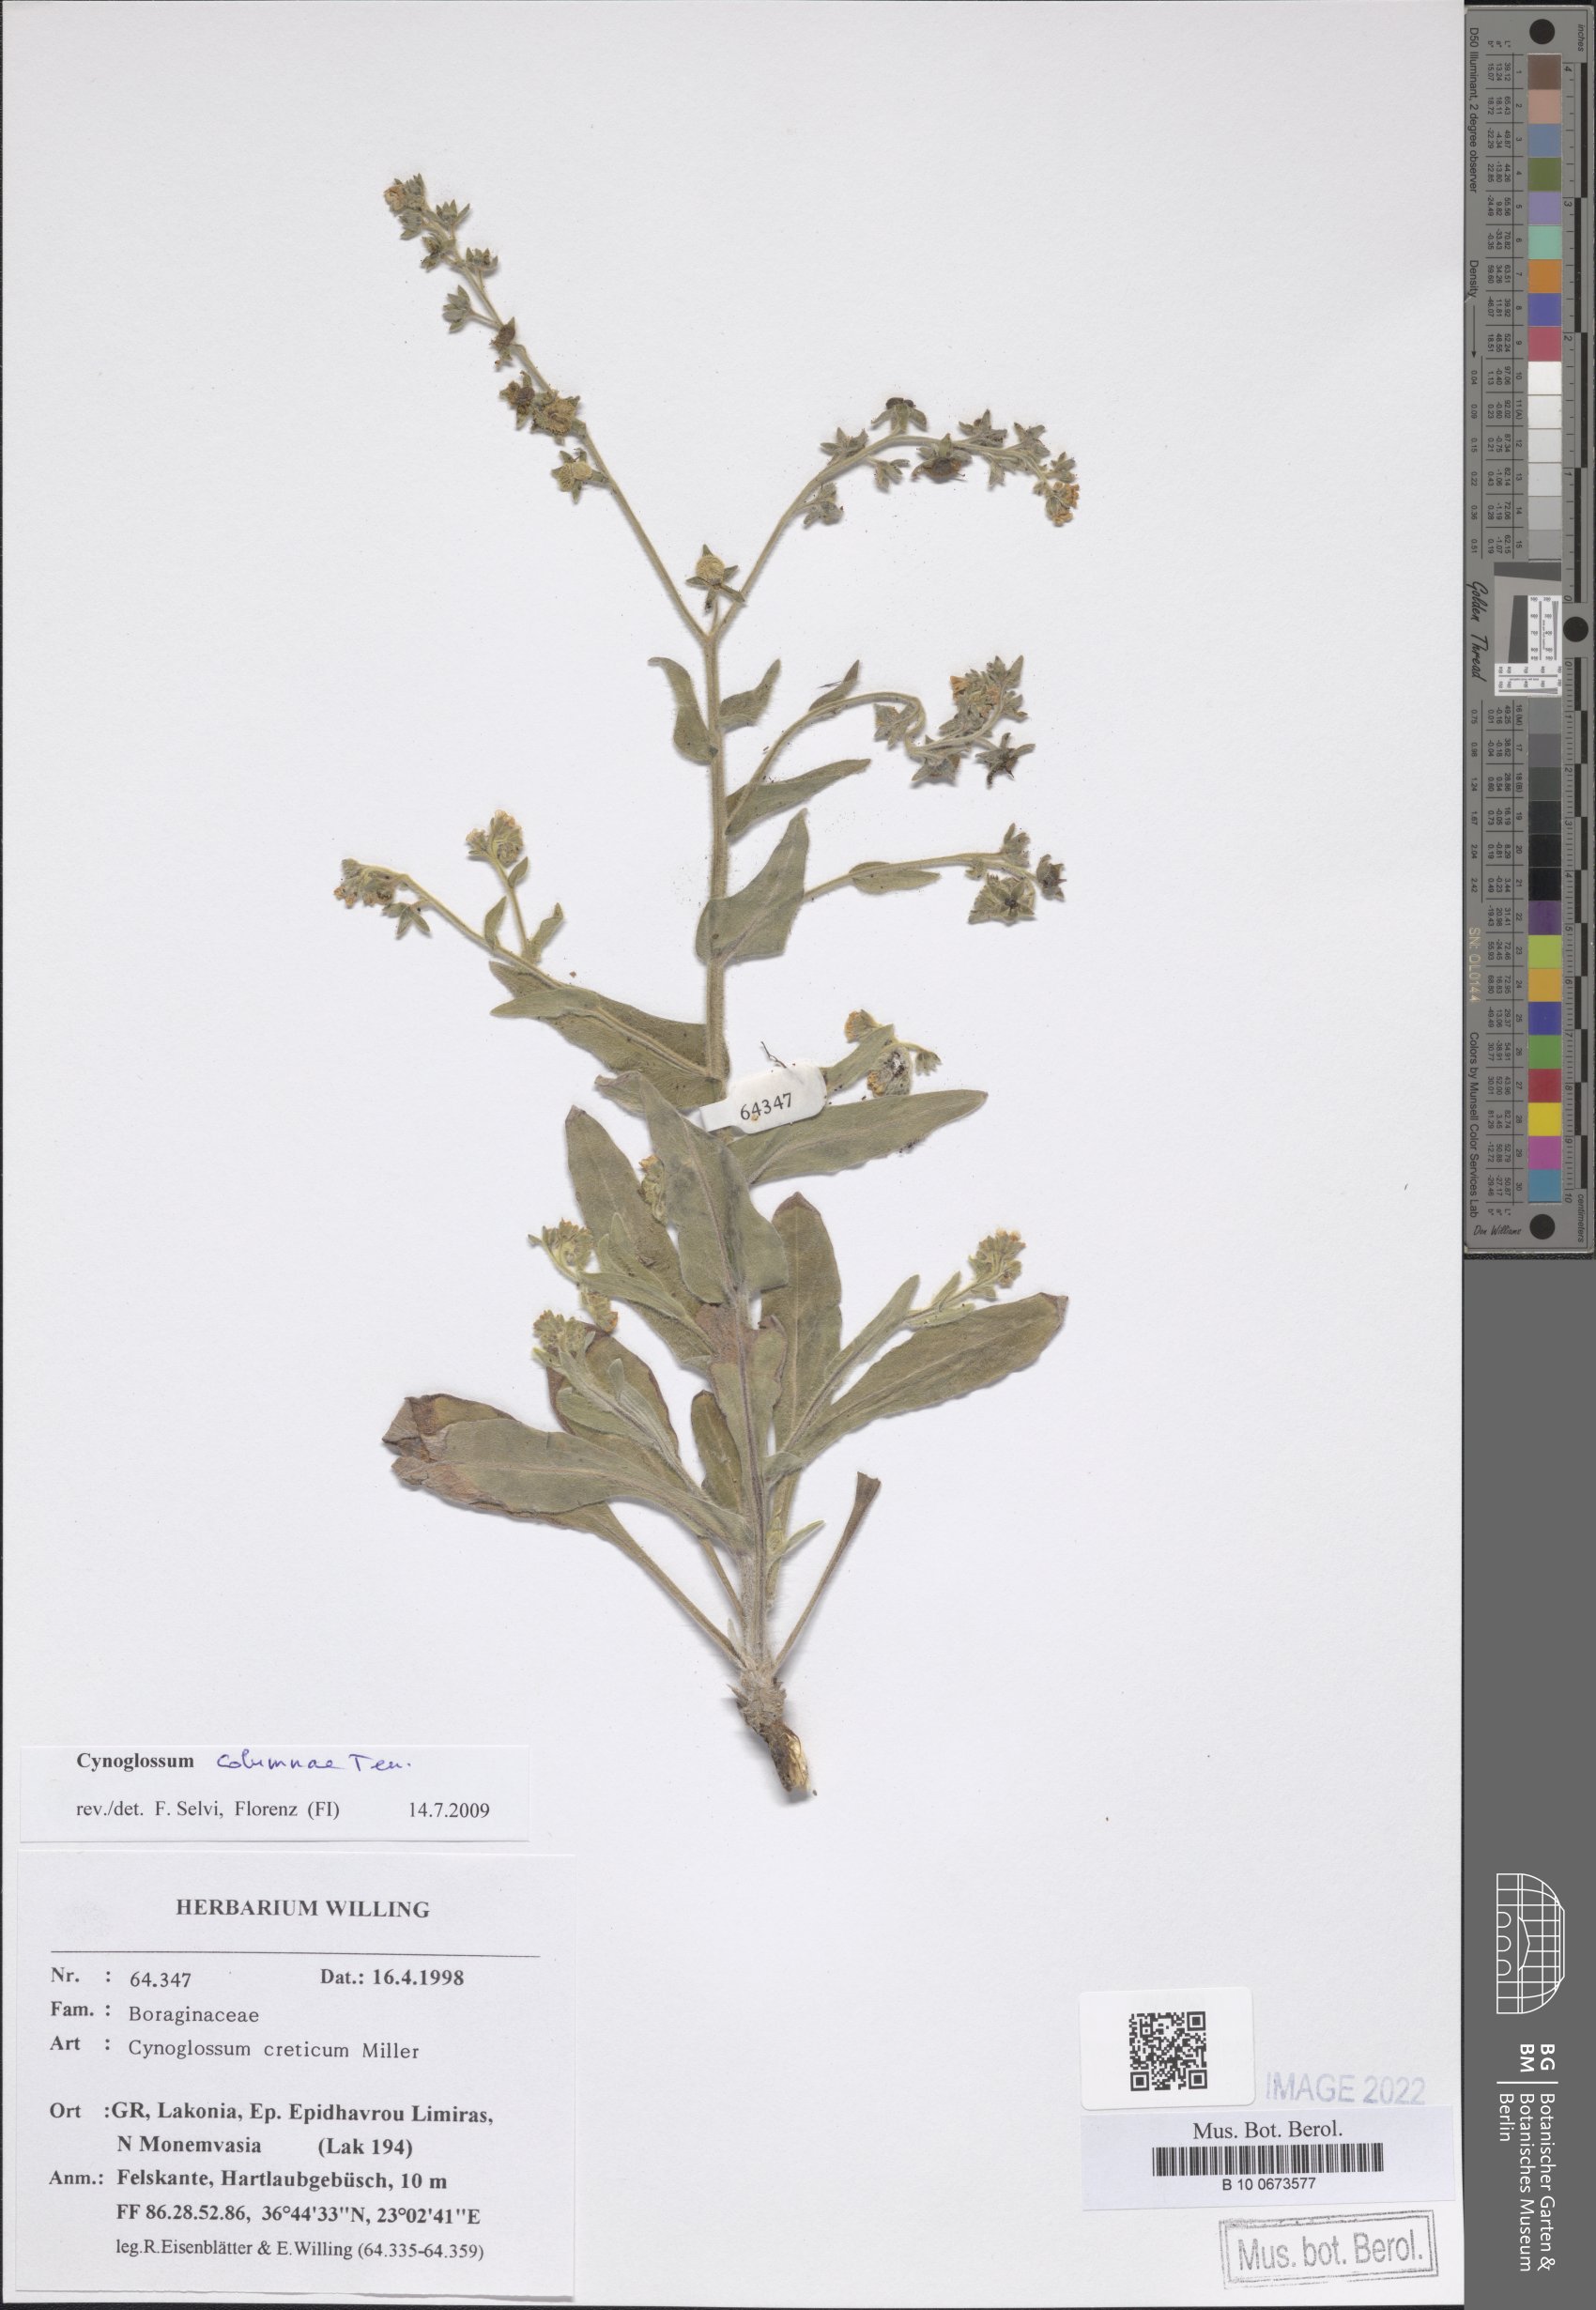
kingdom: Plantae
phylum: Tracheophyta
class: Magnoliopsida
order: Boraginales
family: Boraginaceae
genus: Rindera
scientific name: Rindera columnae
